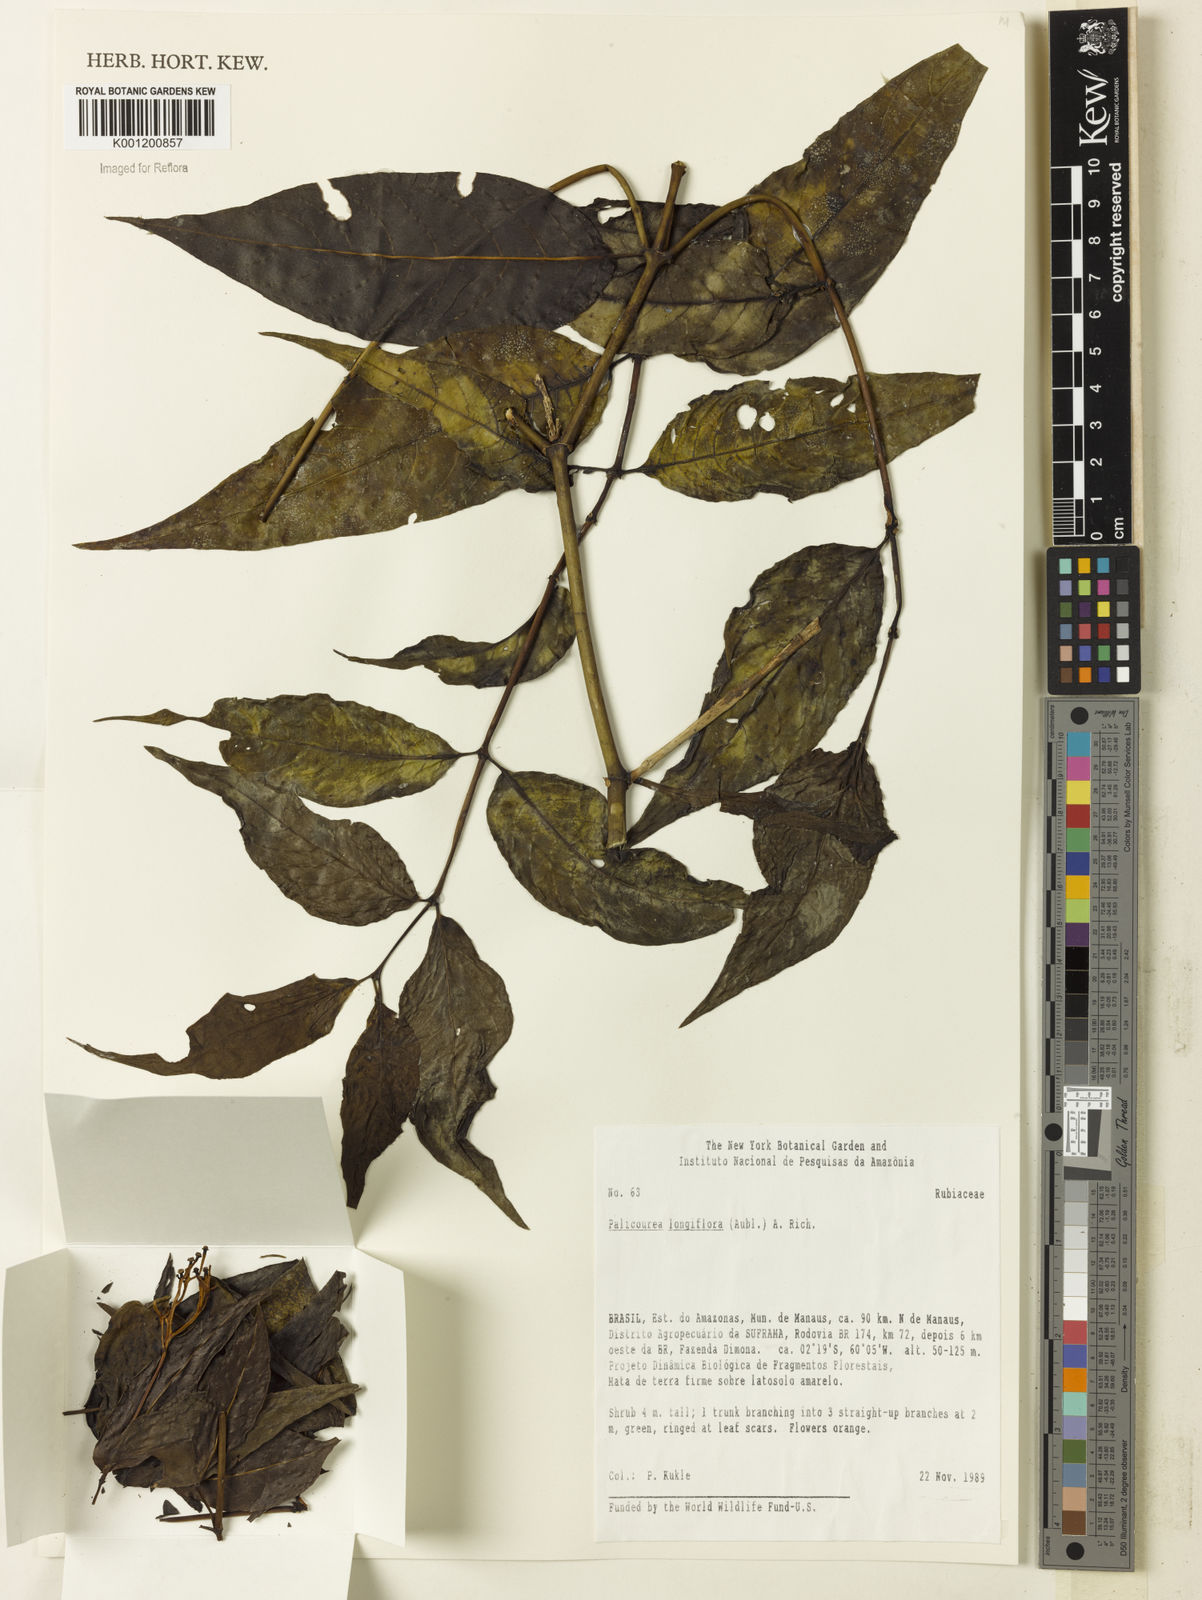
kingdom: Plantae
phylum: Tracheophyta
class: Magnoliopsida
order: Gentianales
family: Rubiaceae
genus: Palicourea
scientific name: Palicourea longiflora
